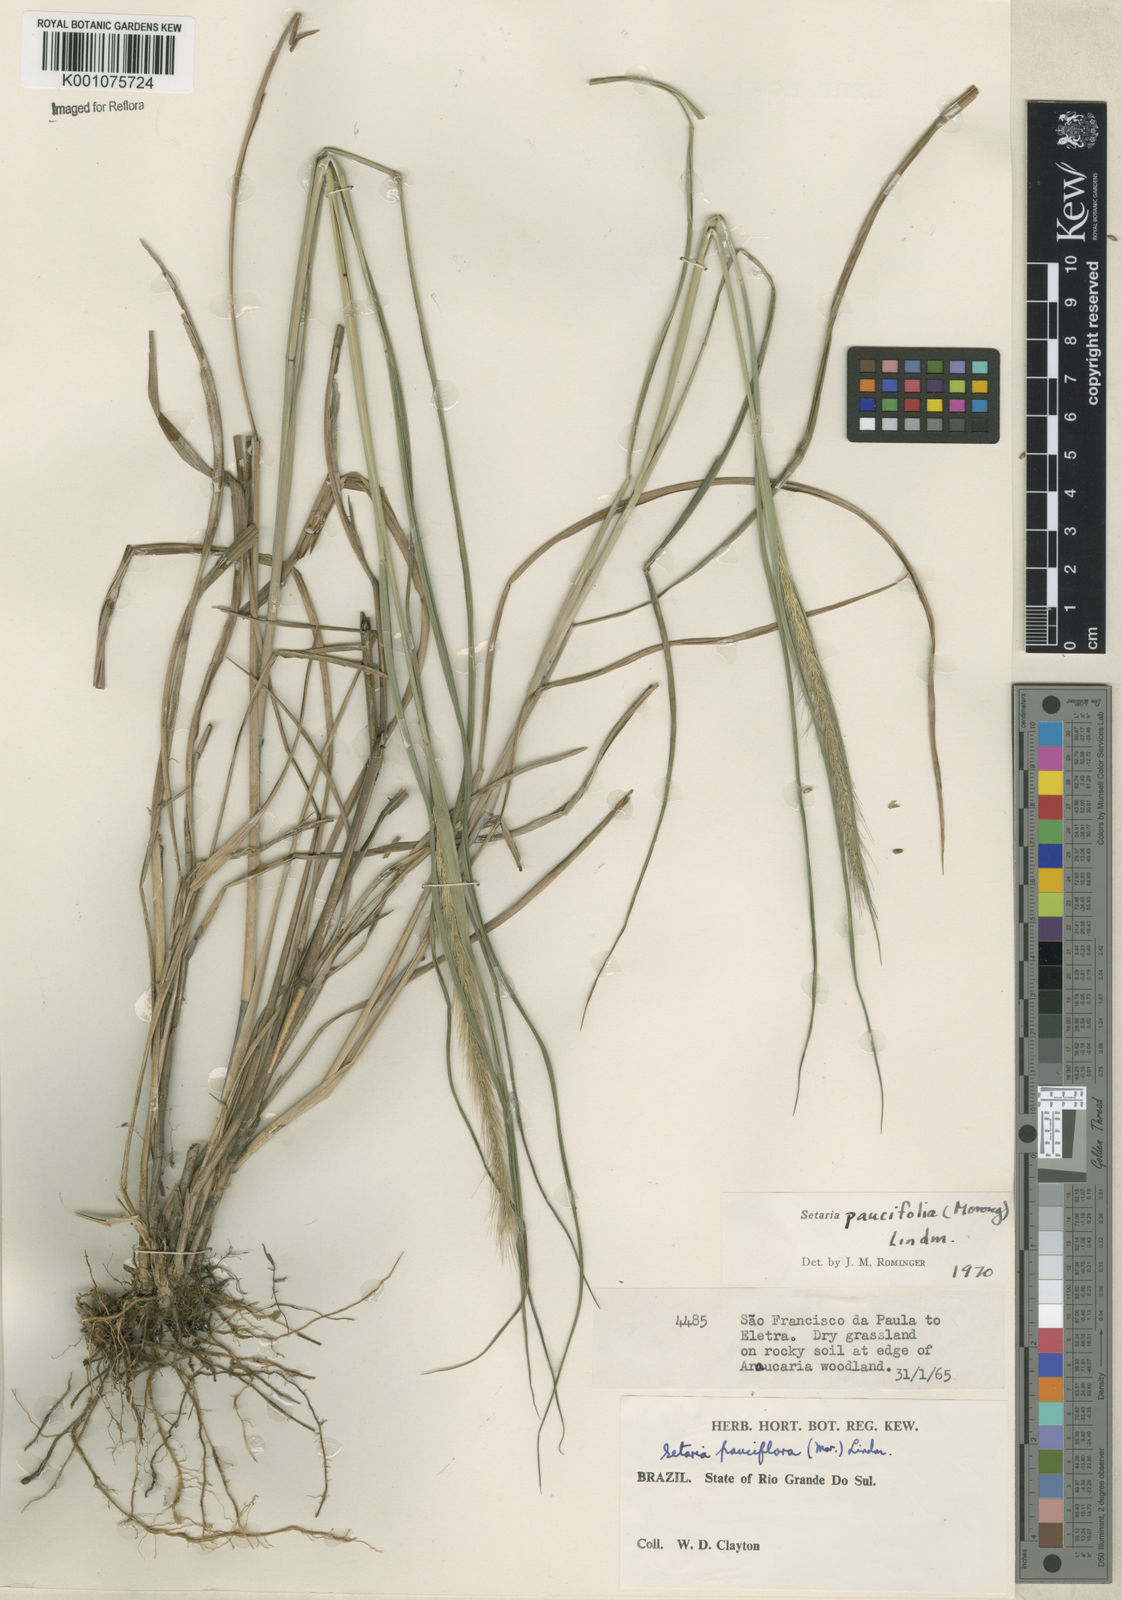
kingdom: Plantae
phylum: Tracheophyta
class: Liliopsida
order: Poales
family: Poaceae
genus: Setaria
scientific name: Setaria
